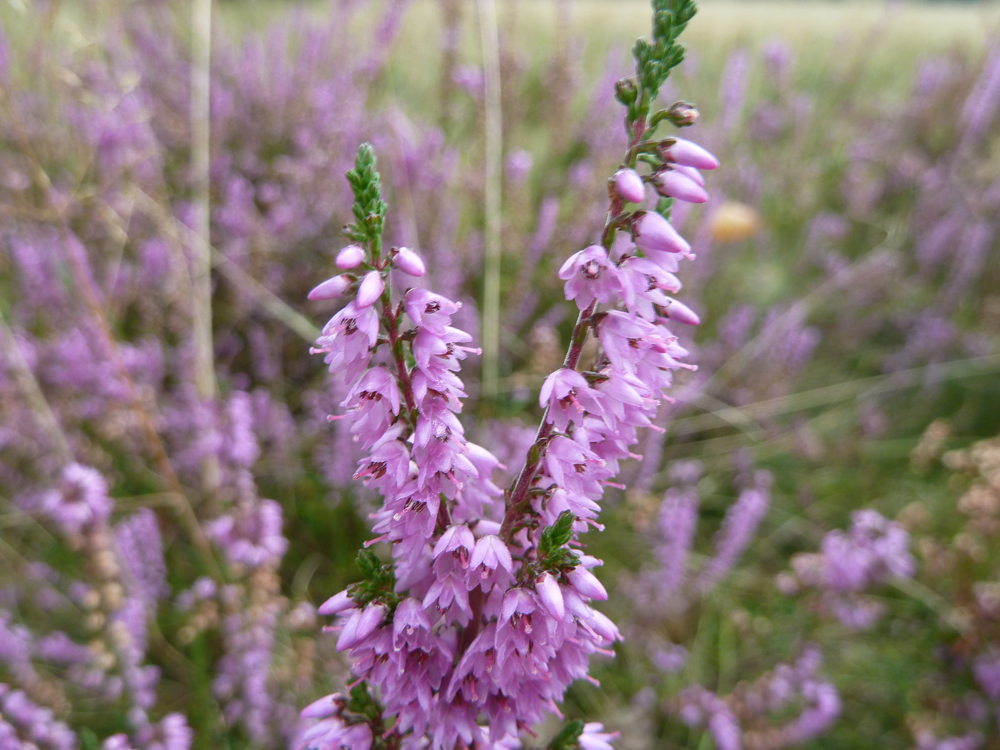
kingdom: Plantae
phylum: Tracheophyta
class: Magnoliopsida
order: Ericales
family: Ericaceae
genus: Calluna
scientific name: Calluna vulgaris
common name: Heather
